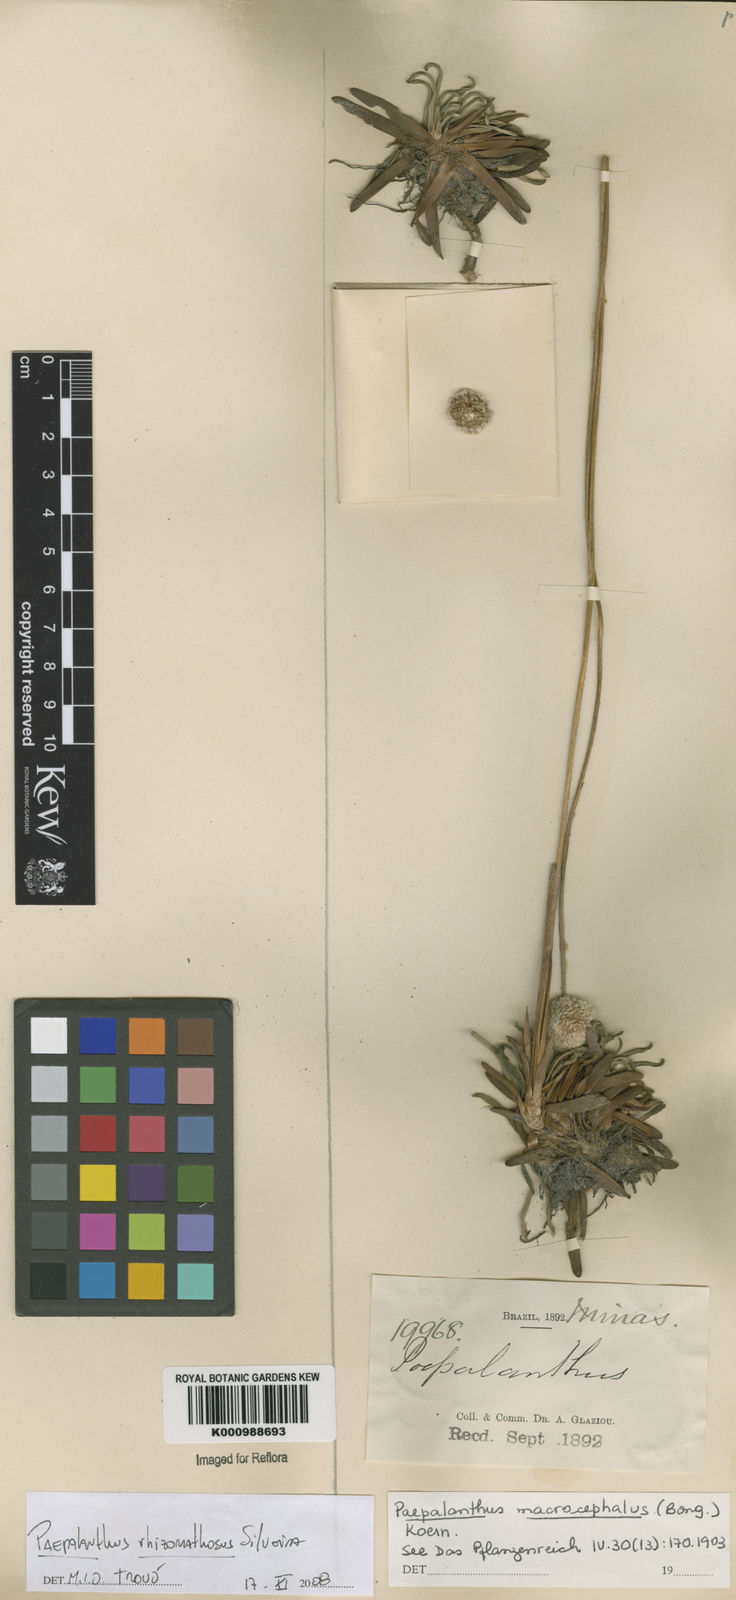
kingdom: Plantae
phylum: Tracheophyta
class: Liliopsida
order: Poales
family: Eriocaulaceae
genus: Paepalanthus
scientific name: Paepalanthus rhizomatosus
